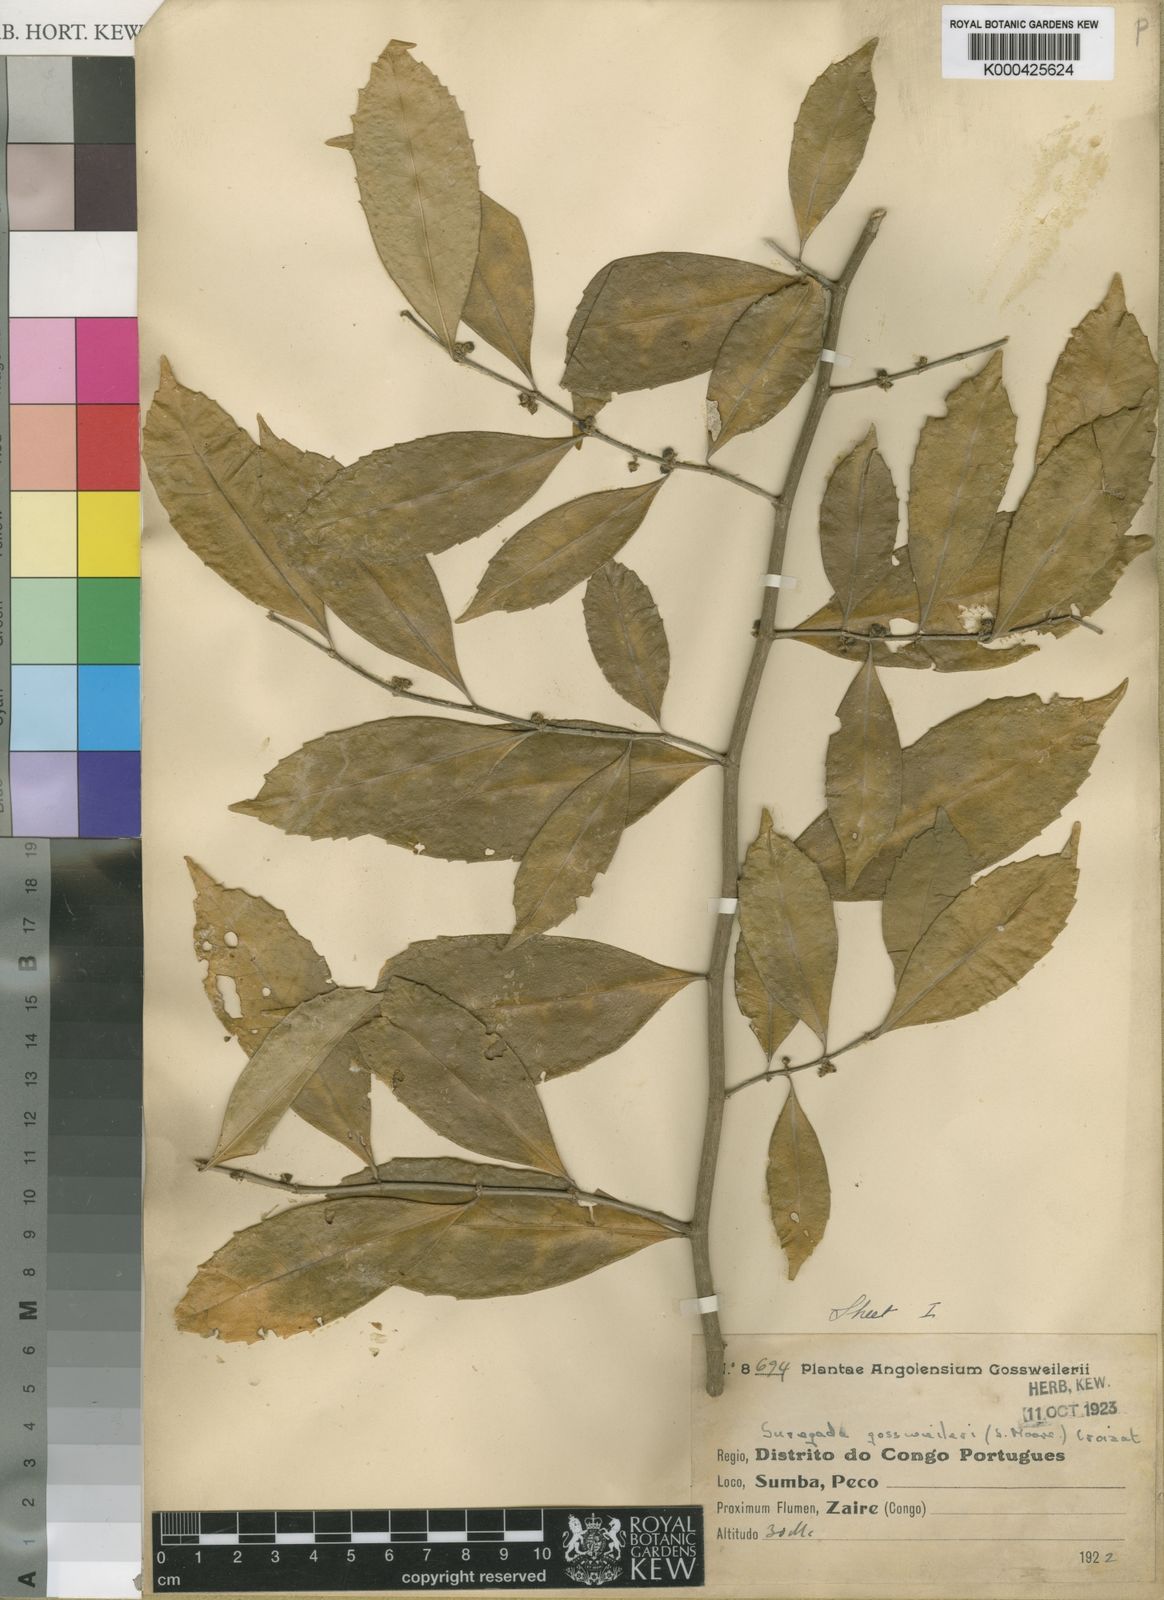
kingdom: Plantae
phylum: Tracheophyta
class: Magnoliopsida
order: Malpighiales
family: Euphorbiaceae
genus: Suregada
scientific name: Suregada gossweileri
